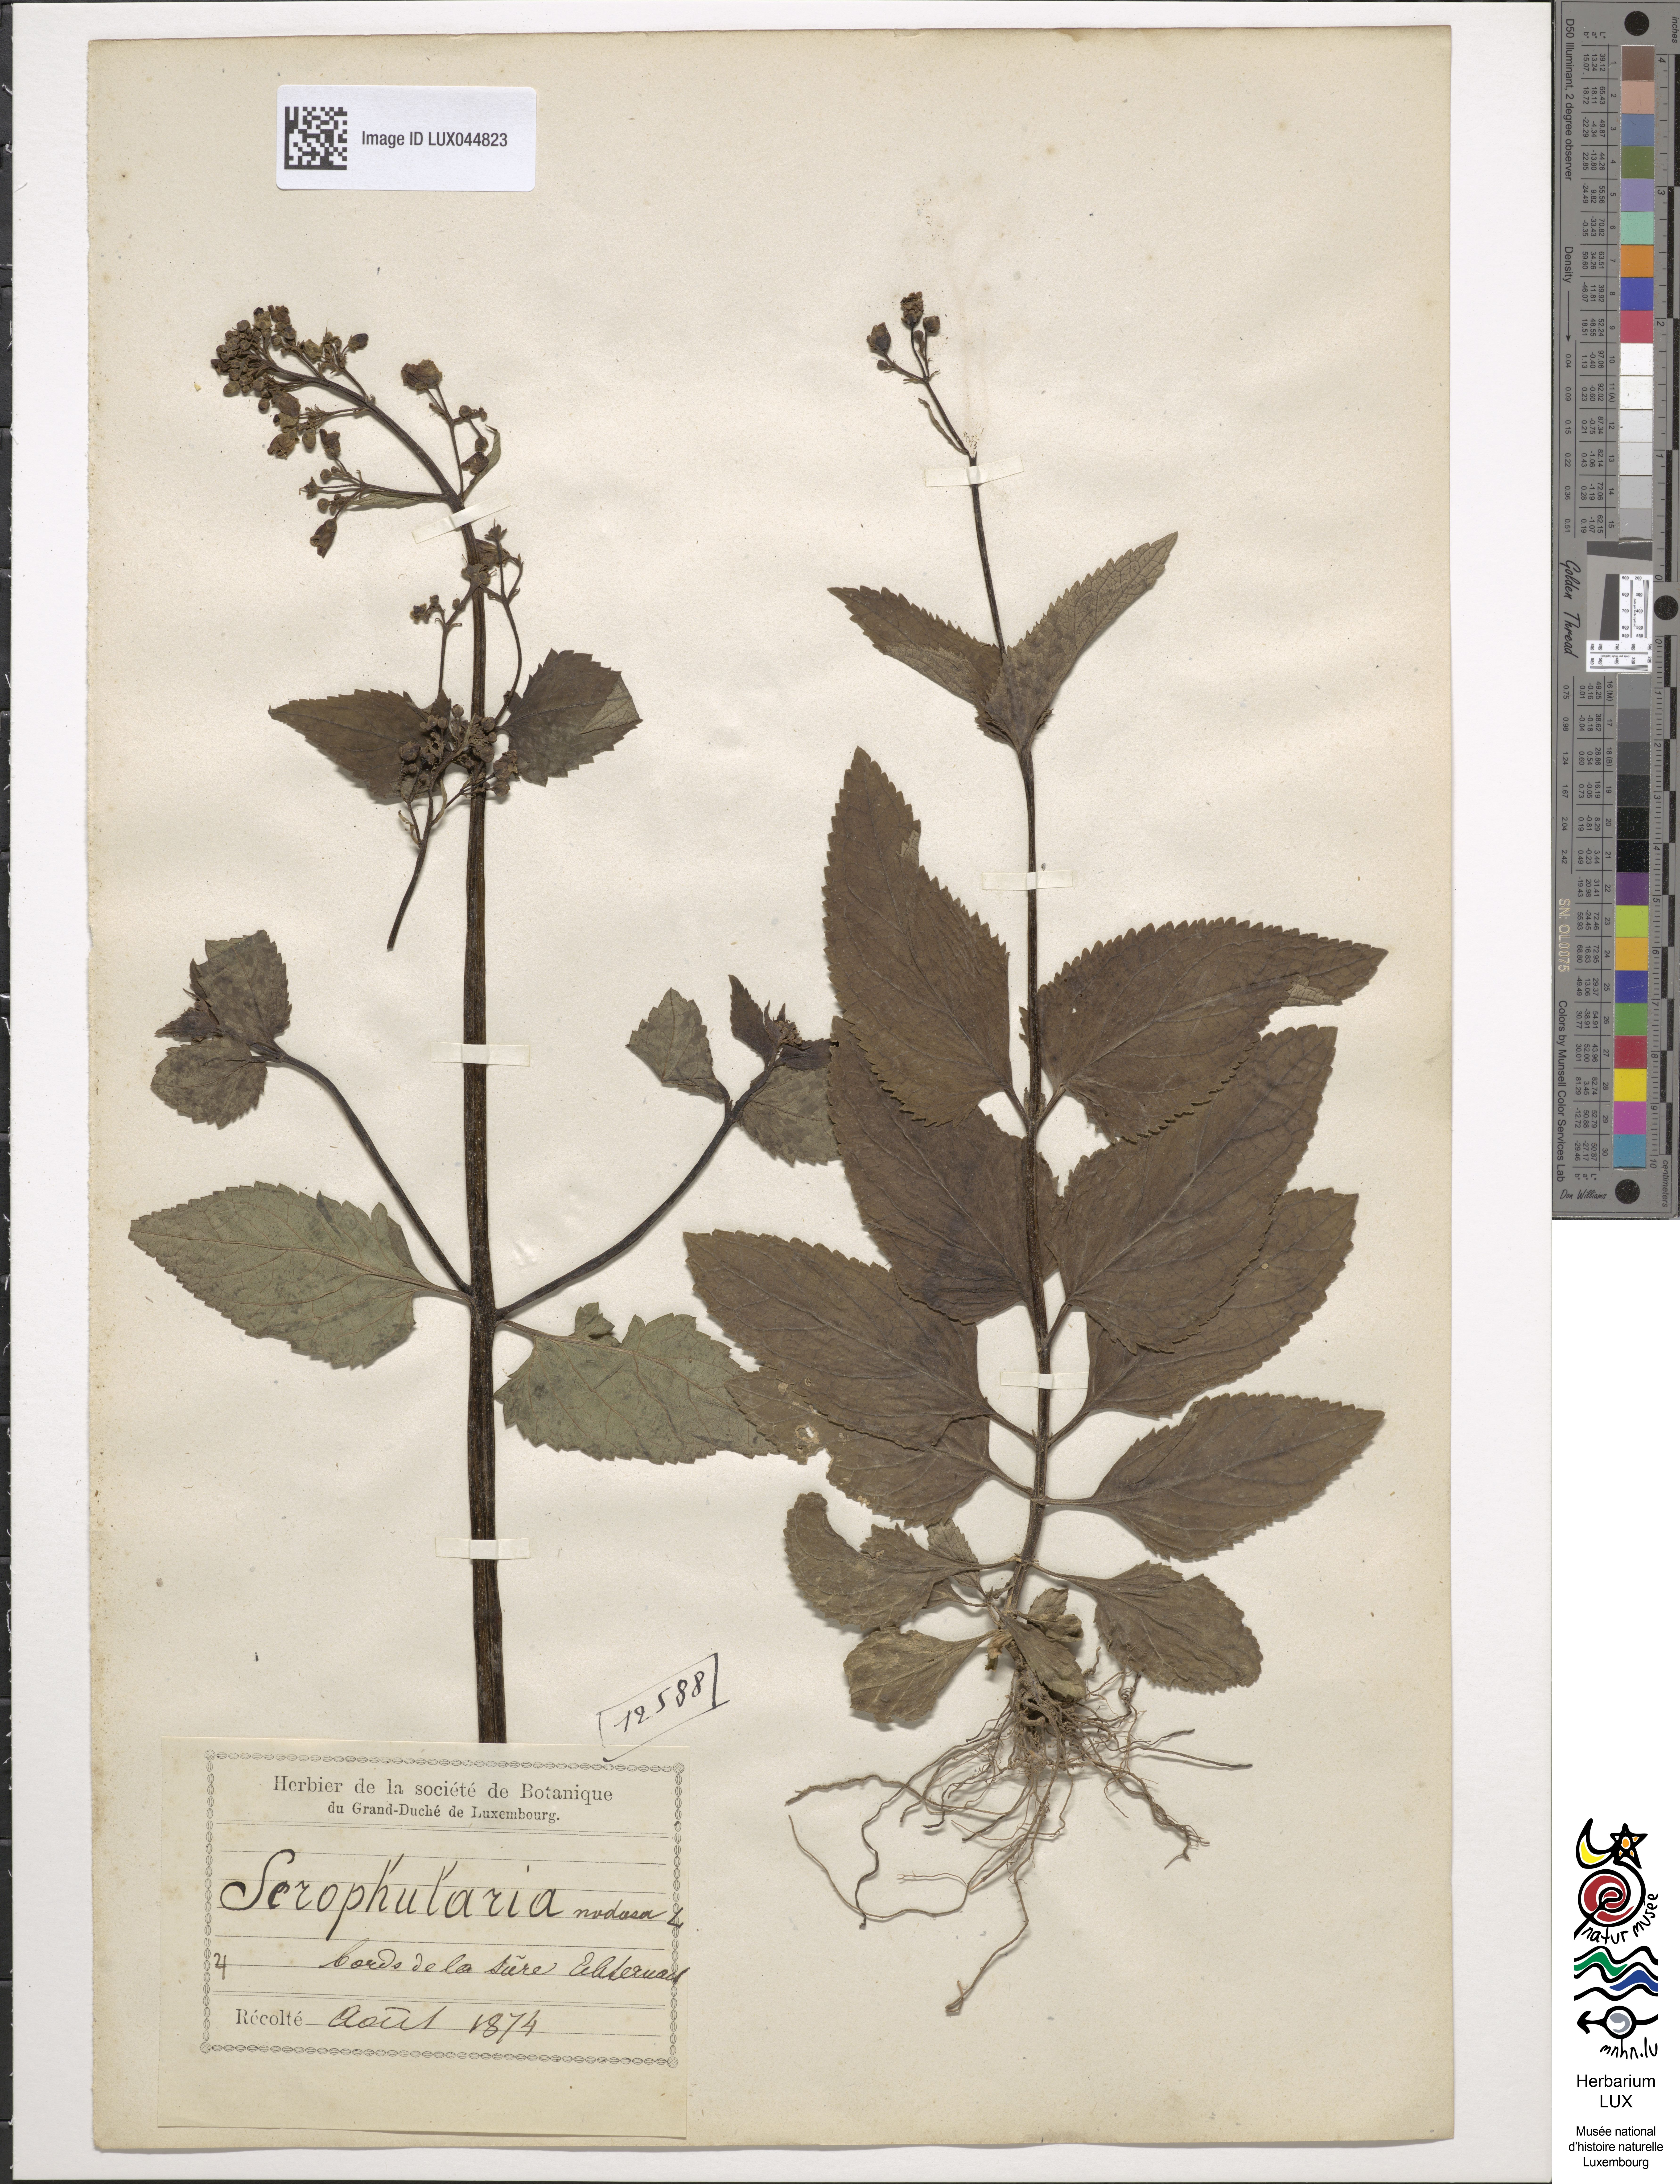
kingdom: Plantae
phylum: Tracheophyta
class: Magnoliopsida
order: Lamiales
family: Scrophulariaceae
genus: Scrophularia
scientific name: Scrophularia nodosa
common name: Common figwort
